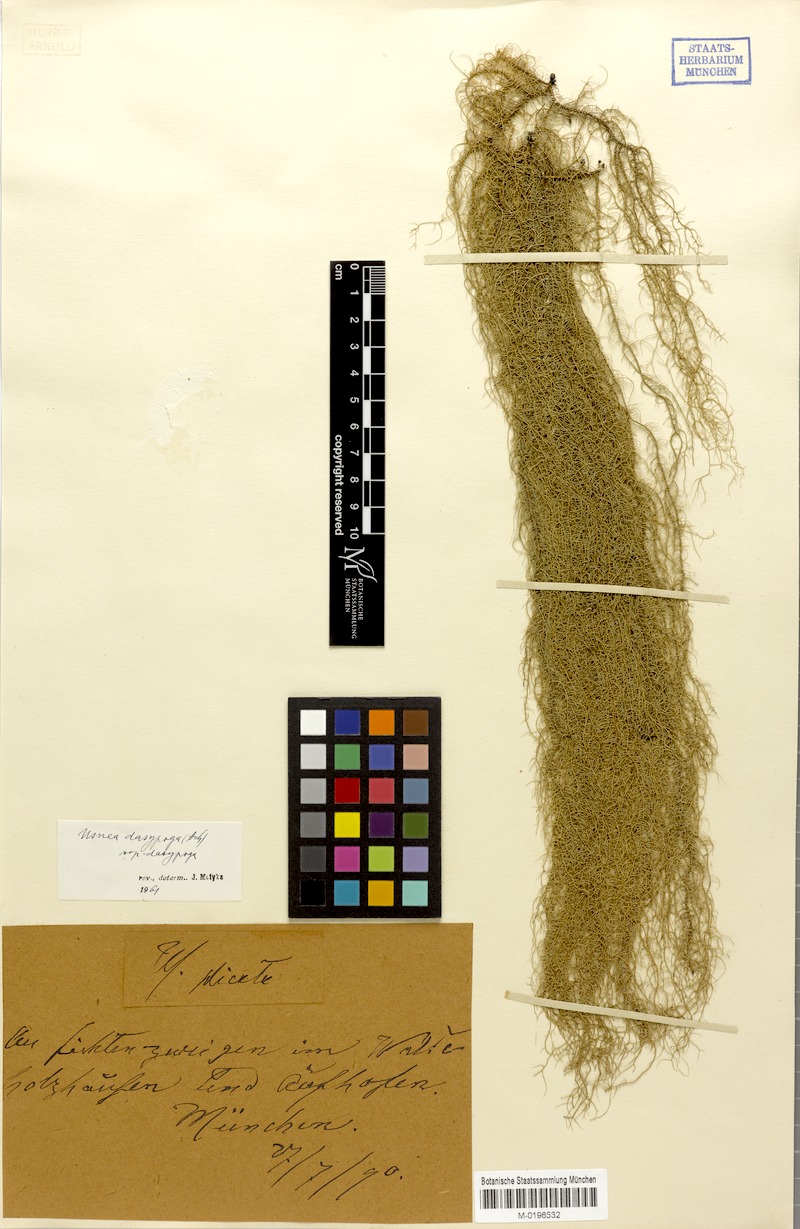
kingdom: Fungi
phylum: Ascomycota
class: Lecanoromycetes
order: Lecanorales
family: Parmeliaceae
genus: Usnea
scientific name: Usnea dasopoga
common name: Fishbone beard lichen
